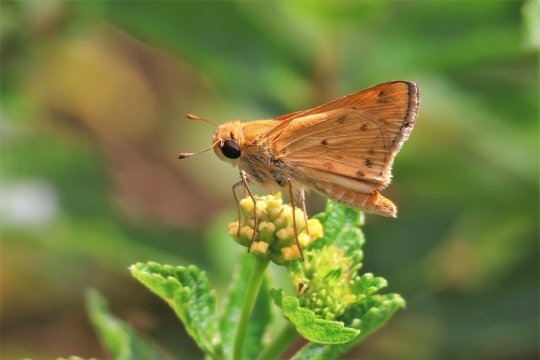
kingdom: Animalia
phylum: Arthropoda
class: Insecta
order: Lepidoptera
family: Hesperiidae
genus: Hylephila
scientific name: Hylephila phyleus
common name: Fiery Skipper
